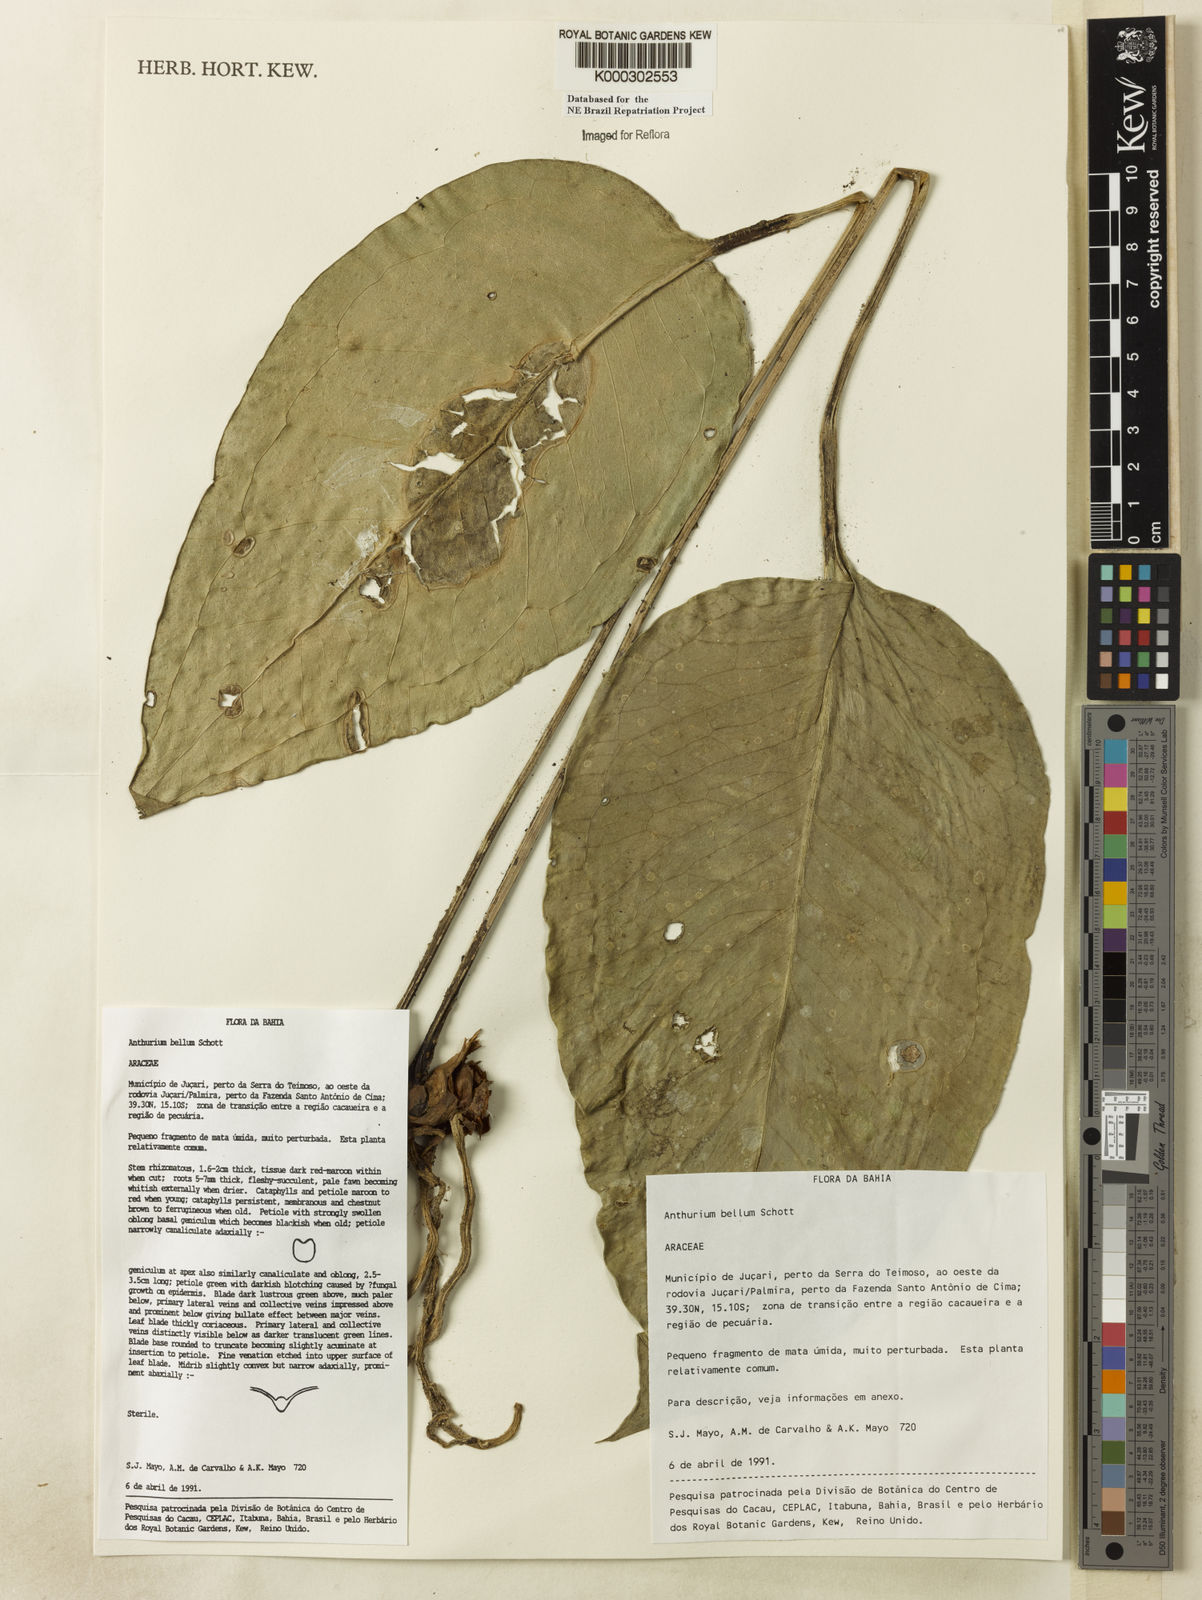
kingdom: Plantae
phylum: Tracheophyta
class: Liliopsida
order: Alismatales
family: Araceae
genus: Anthurium
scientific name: Anthurium bellum
